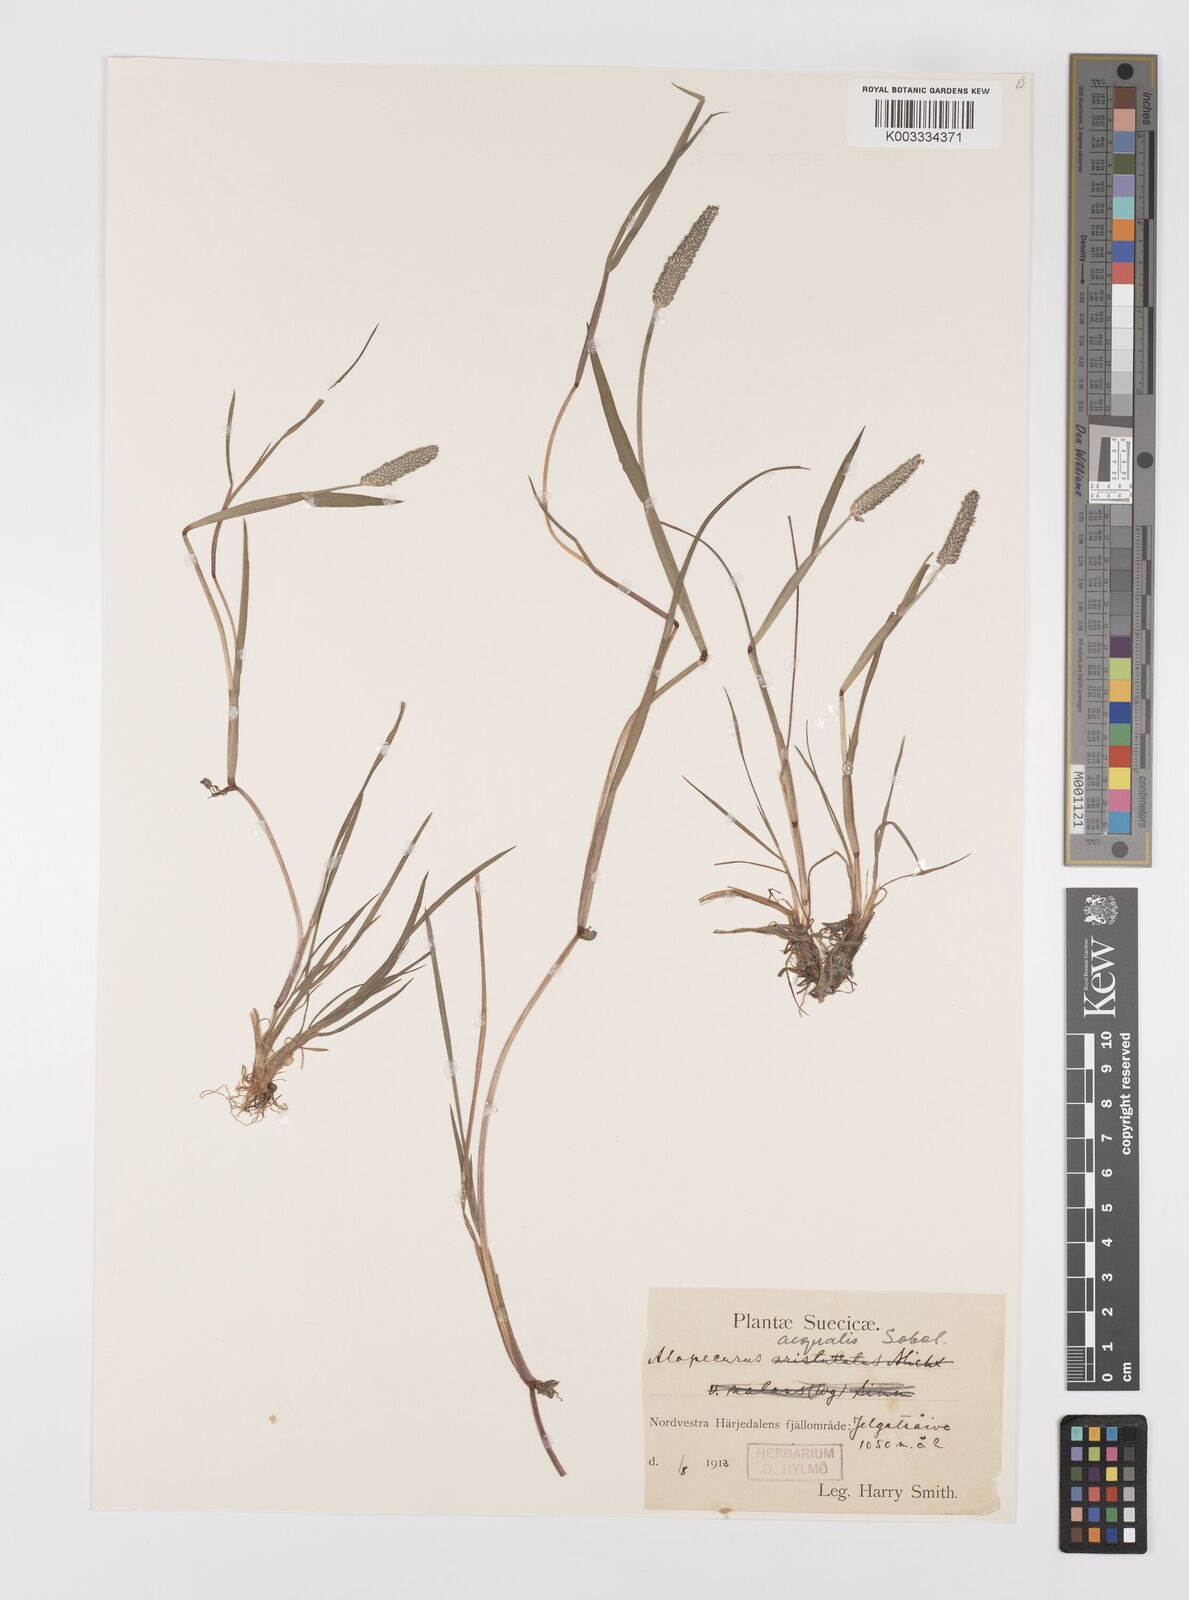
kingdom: Plantae
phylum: Tracheophyta
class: Liliopsida
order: Poales
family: Poaceae
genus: Alopecurus
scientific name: Alopecurus aequalis
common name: Orange foxtail
